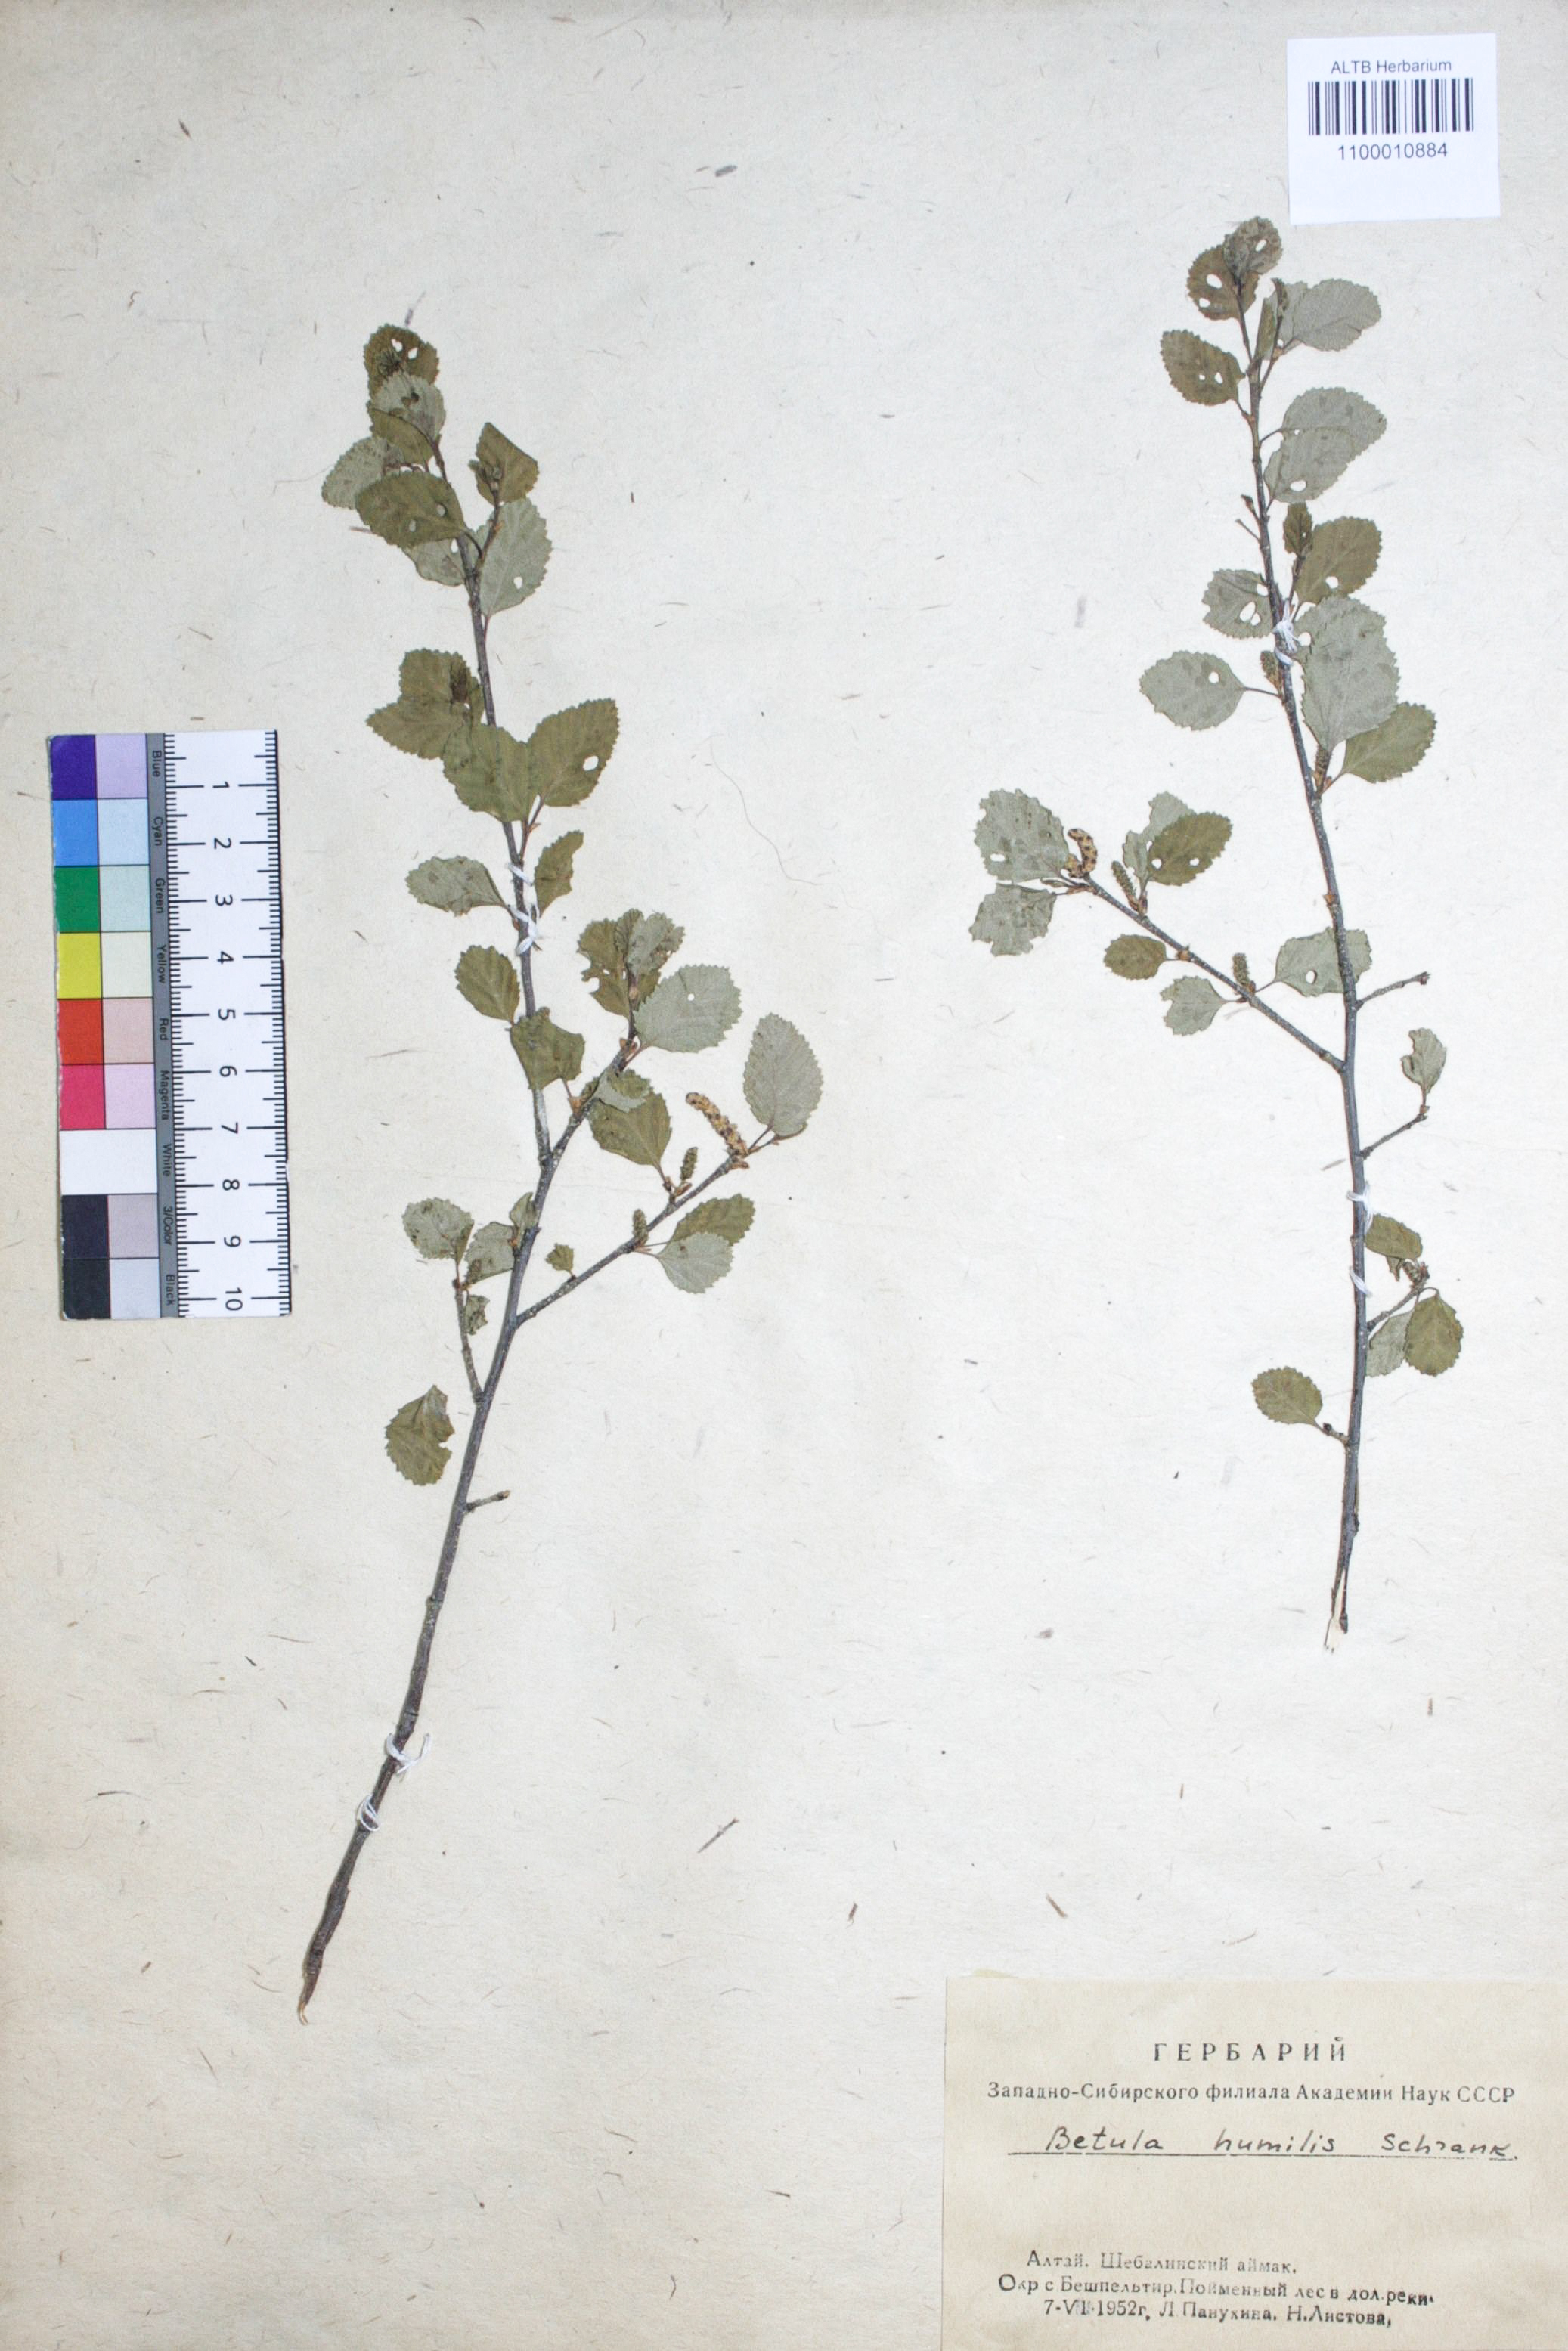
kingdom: Plantae
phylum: Tracheophyta
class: Magnoliopsida
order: Fagales
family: Betulaceae
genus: Betula
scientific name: Betula humilis
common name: Shrubby birch
